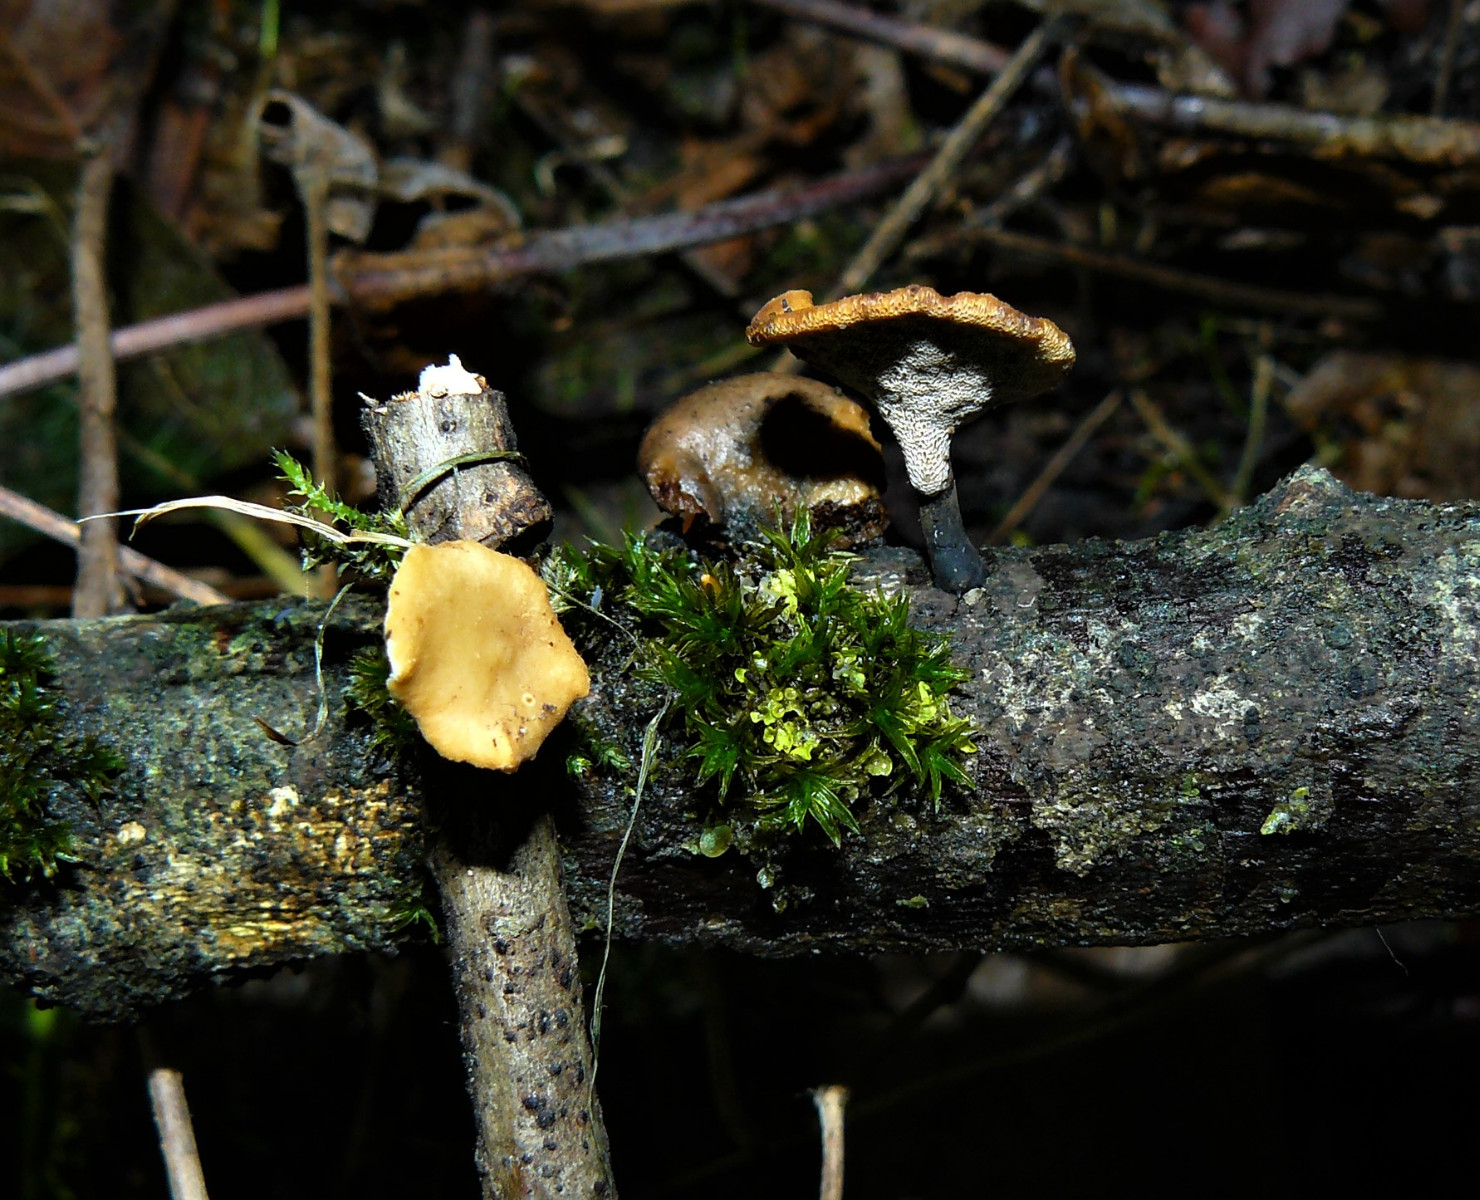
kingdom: Fungi
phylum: Basidiomycota
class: Agaricomycetes
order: Polyporales
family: Polyporaceae
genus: Cerioporus
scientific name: Cerioporus varius
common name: foranderlig stilkporesvamp
